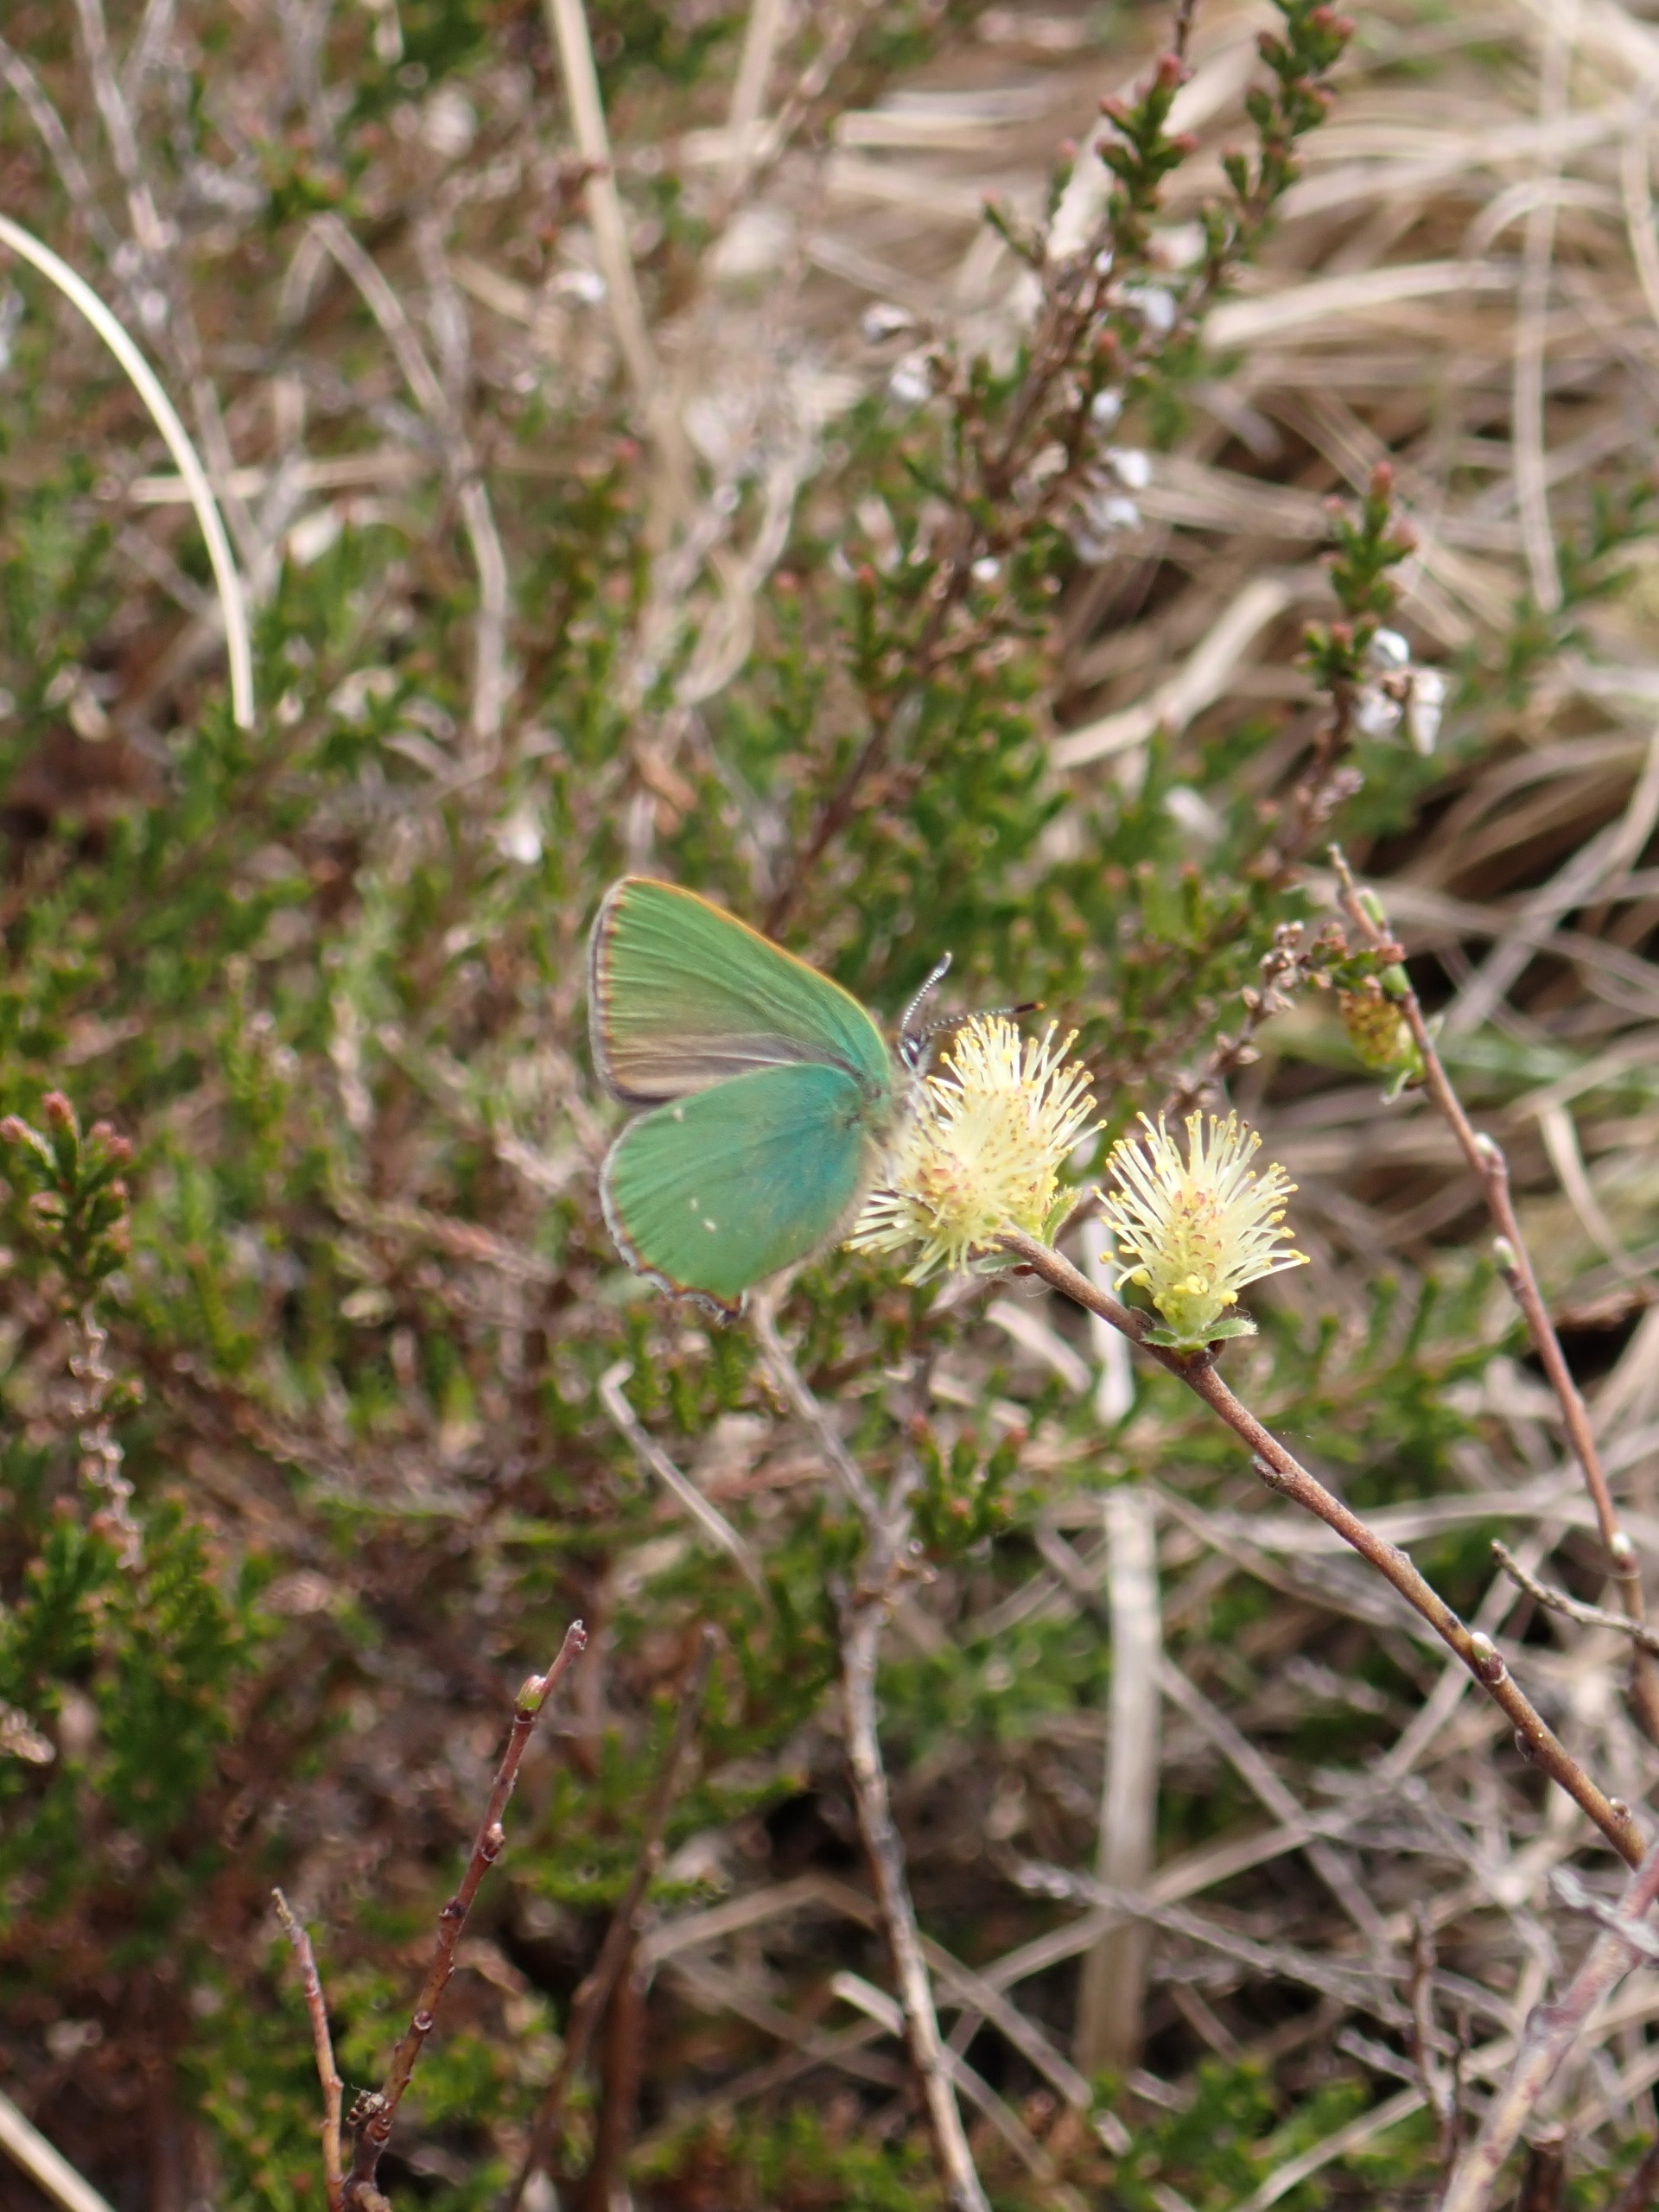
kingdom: Animalia
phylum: Arthropoda
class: Insecta
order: Lepidoptera
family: Lycaenidae
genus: Callophrys
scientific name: Callophrys rubi
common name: Grøn busksommerfugl
